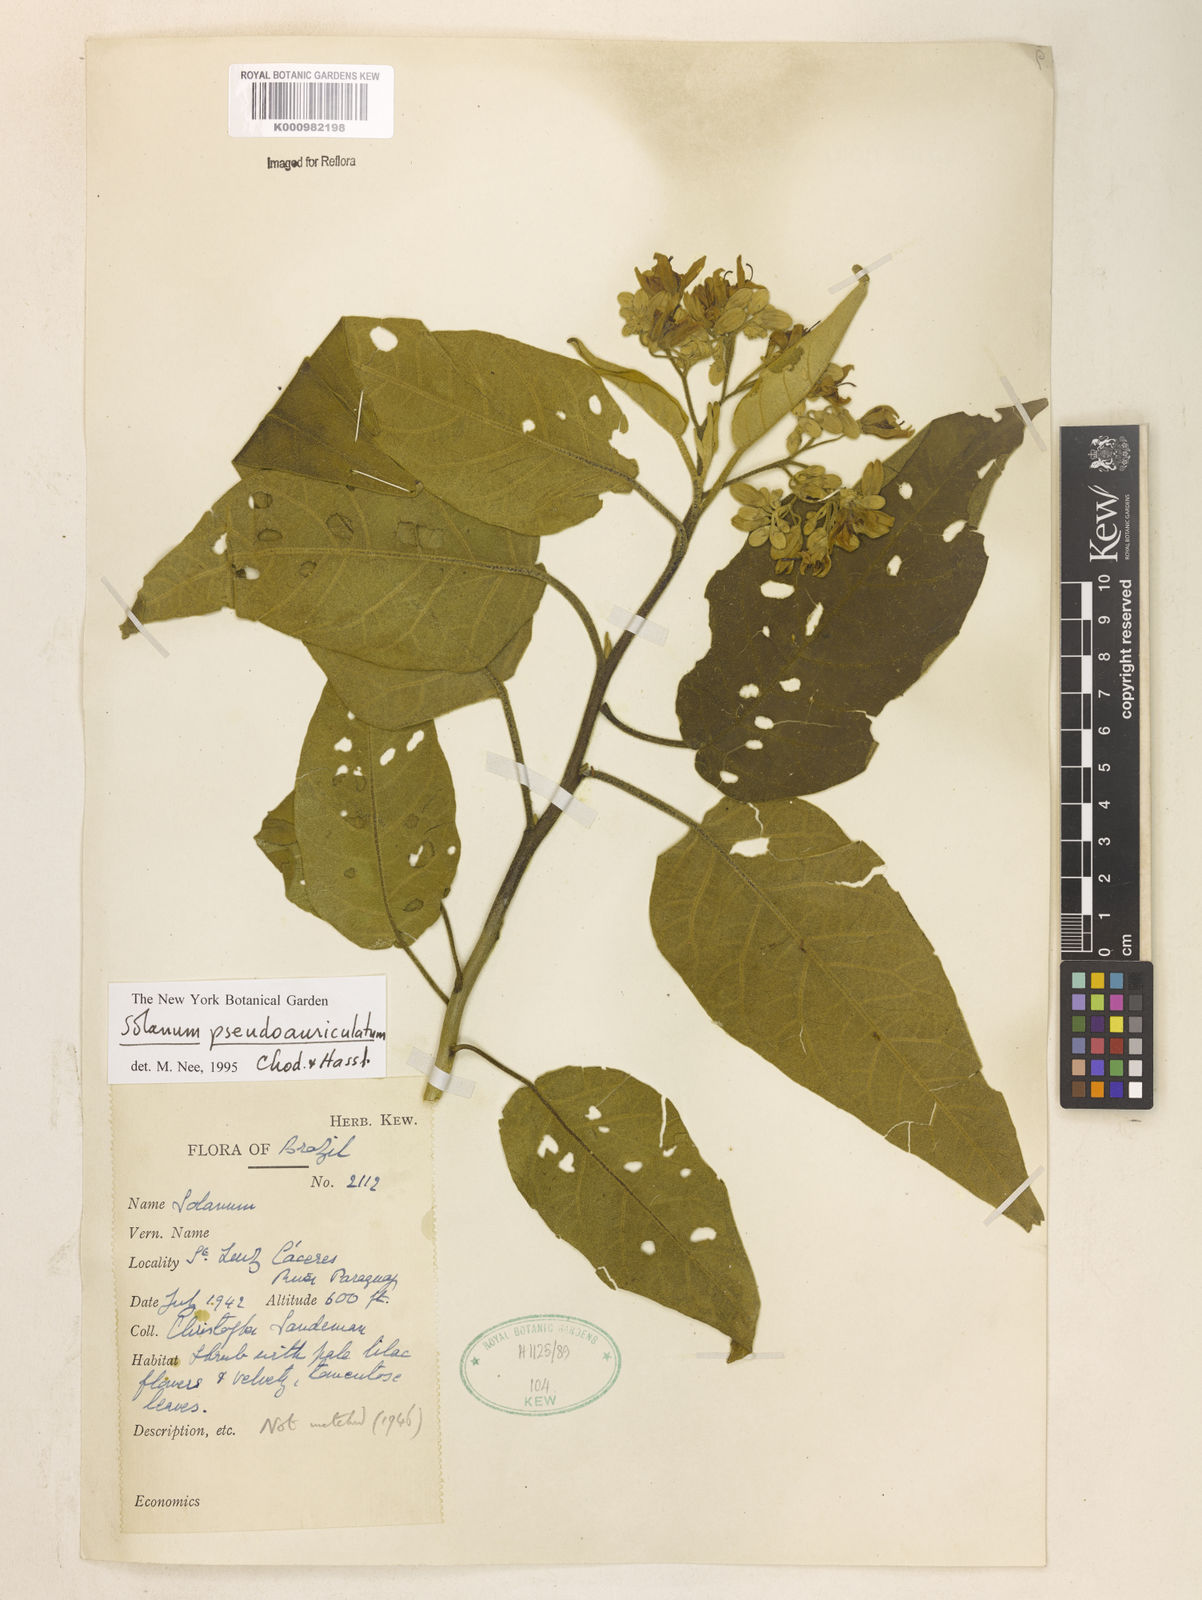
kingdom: Plantae
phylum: Tracheophyta
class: Magnoliopsida
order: Solanales
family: Solanaceae
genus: Solanum
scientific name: Solanum
